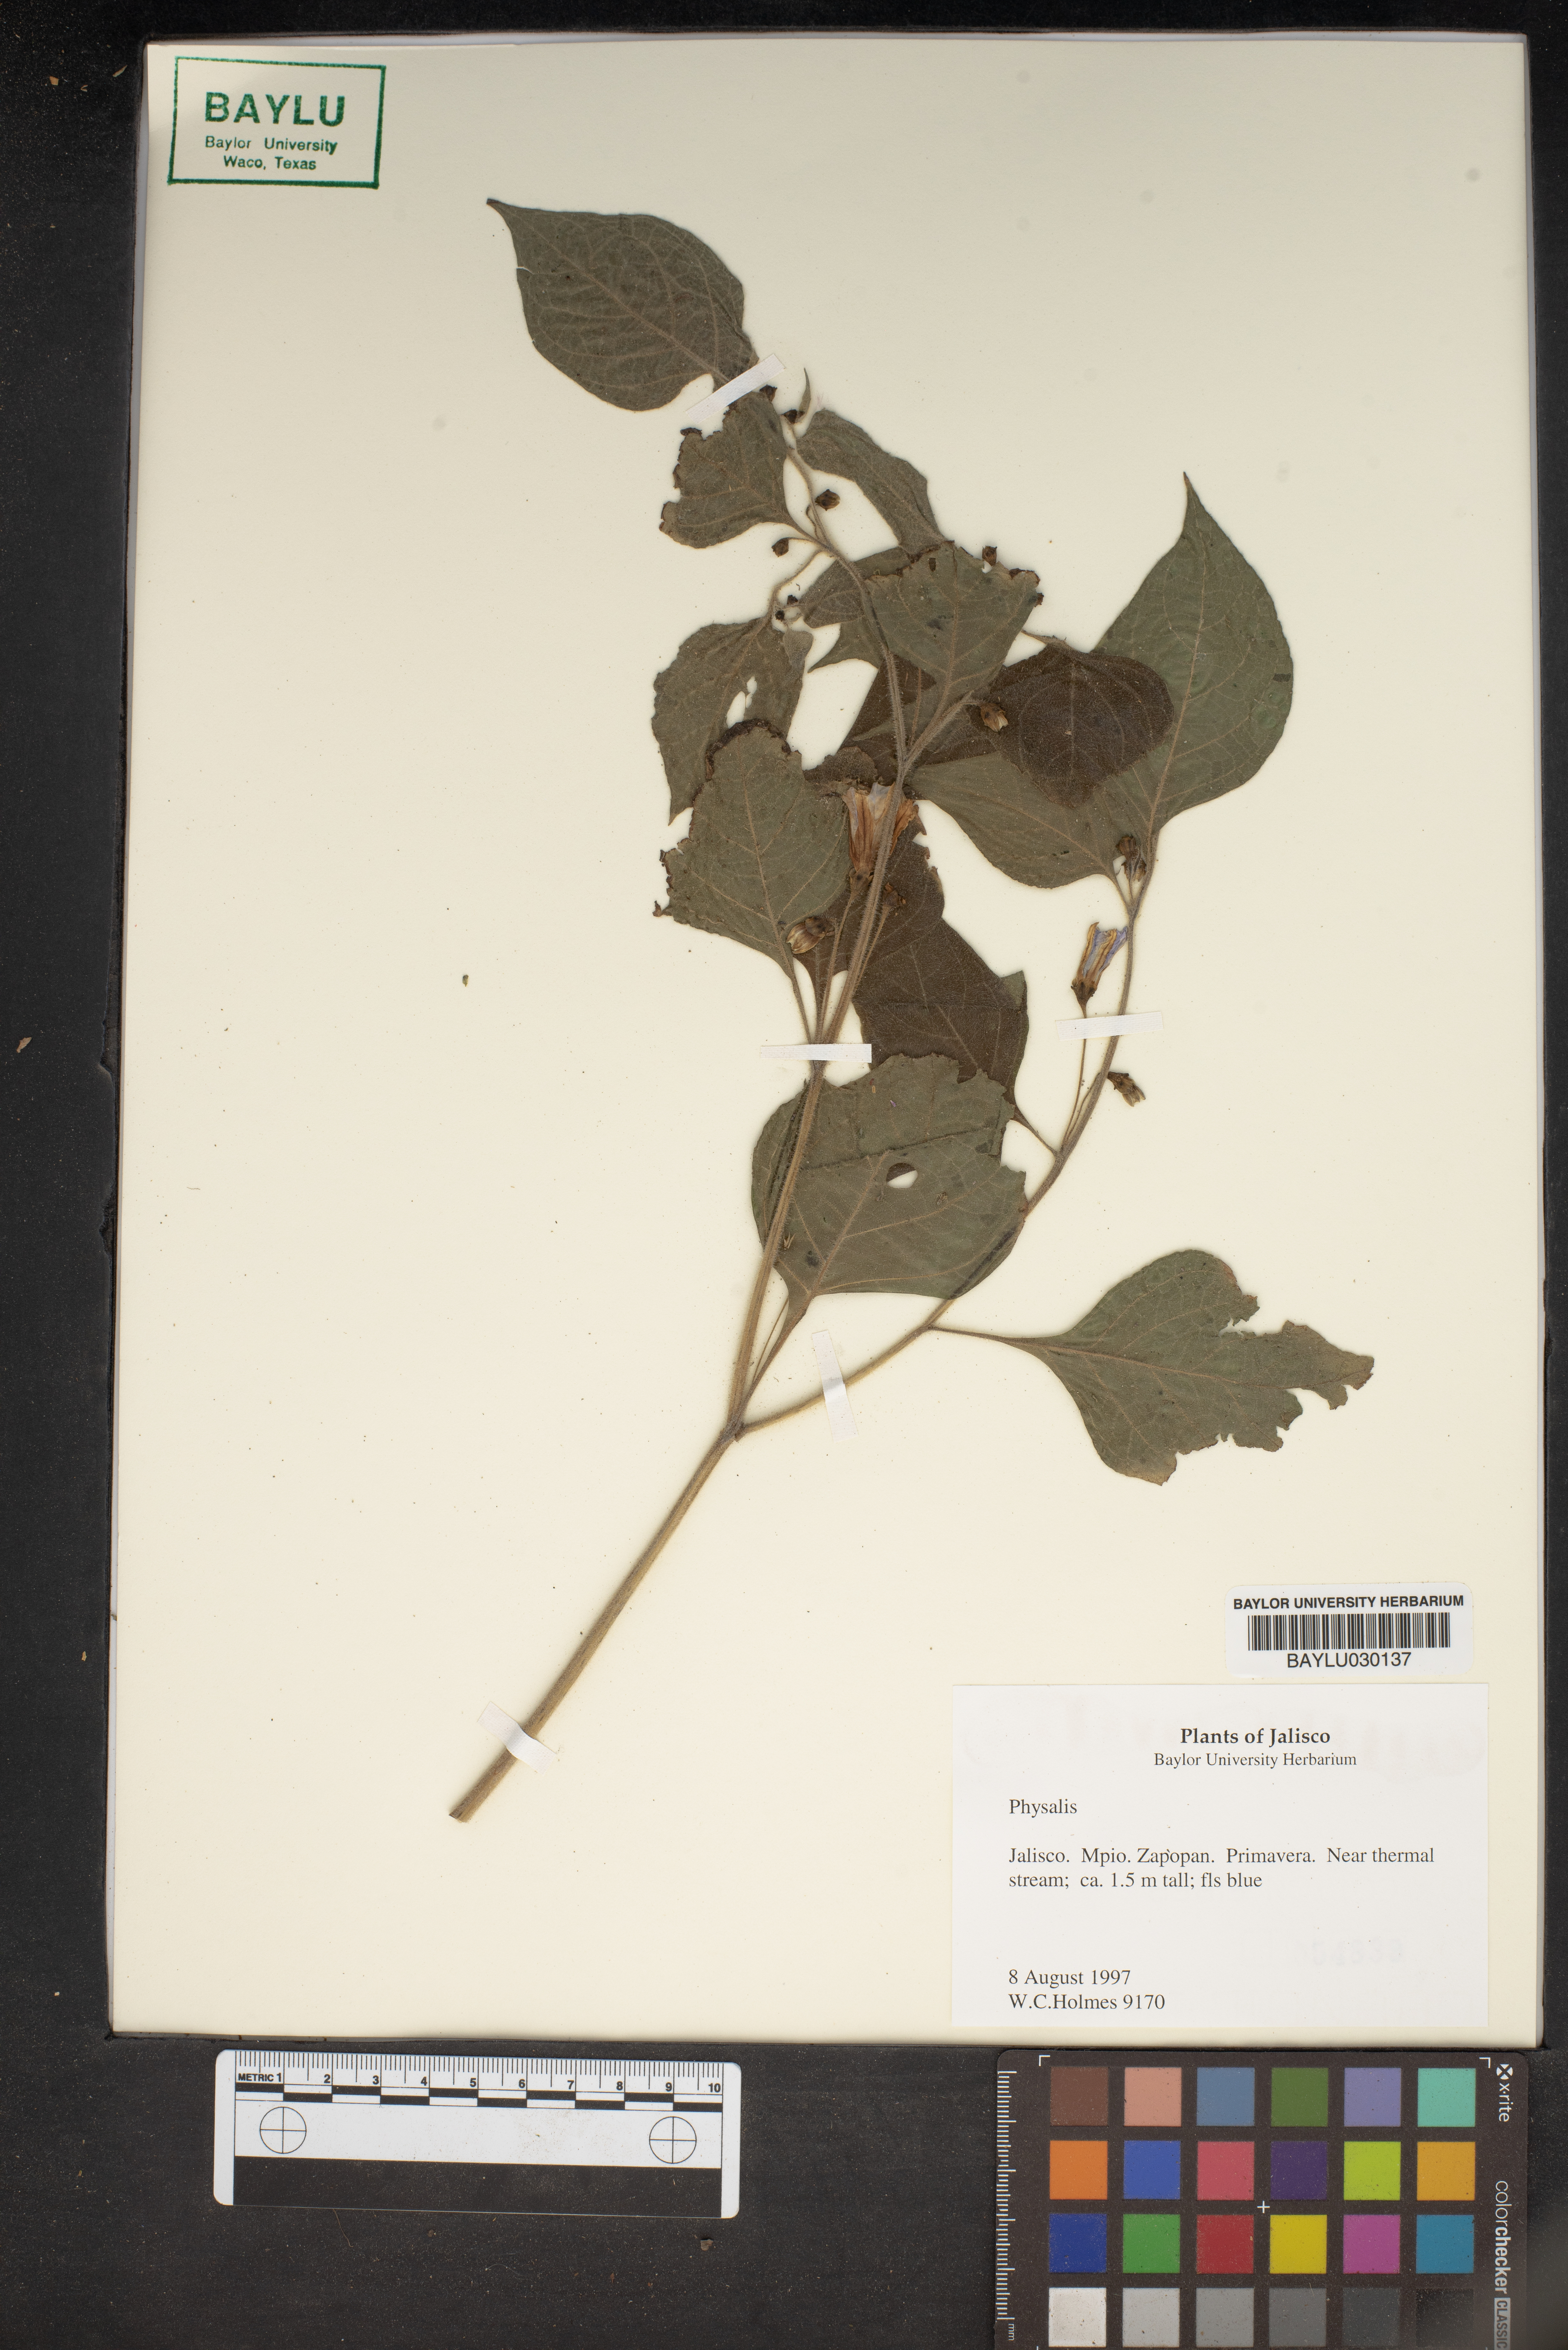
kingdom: Plantae
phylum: Tracheophyta
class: Magnoliopsida
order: Solanales
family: Solanaceae
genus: Physalis
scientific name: Physalis
